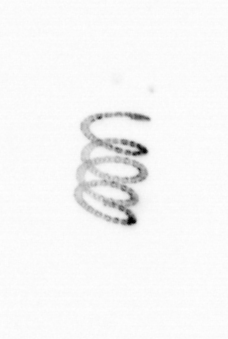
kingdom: Chromista
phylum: Ochrophyta
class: Bacillariophyceae
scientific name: Bacillariophyceae
